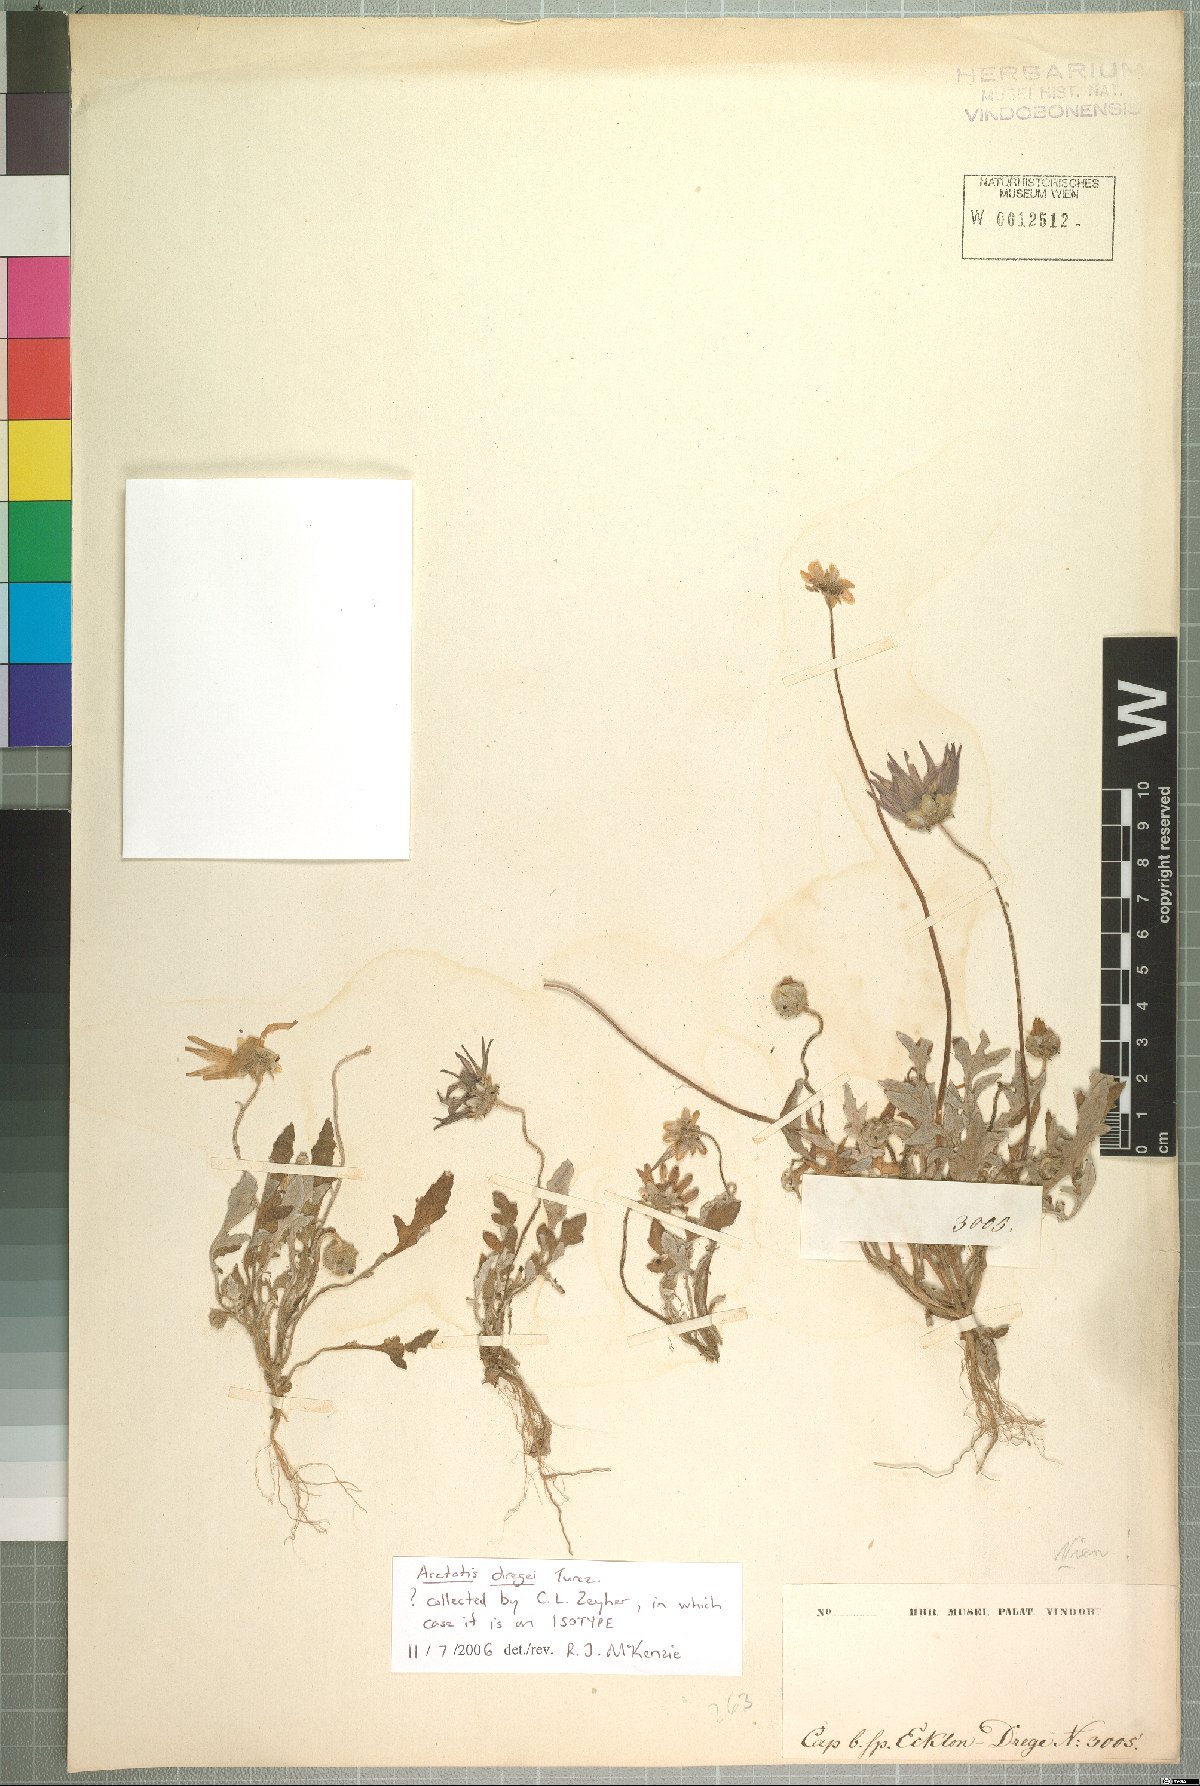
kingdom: Plantae
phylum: Tracheophyta
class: Magnoliopsida
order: Asterales
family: Asteraceae
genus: Arctotis
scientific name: Arctotis dregei
